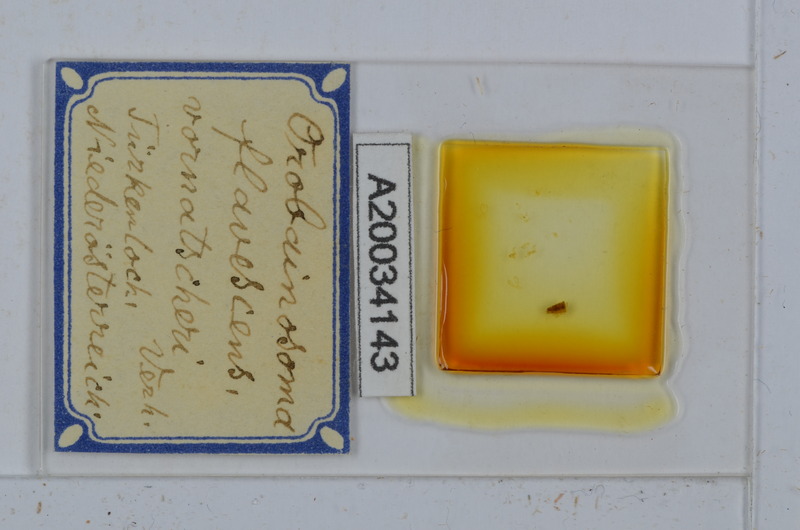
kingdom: Animalia
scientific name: Animalia
